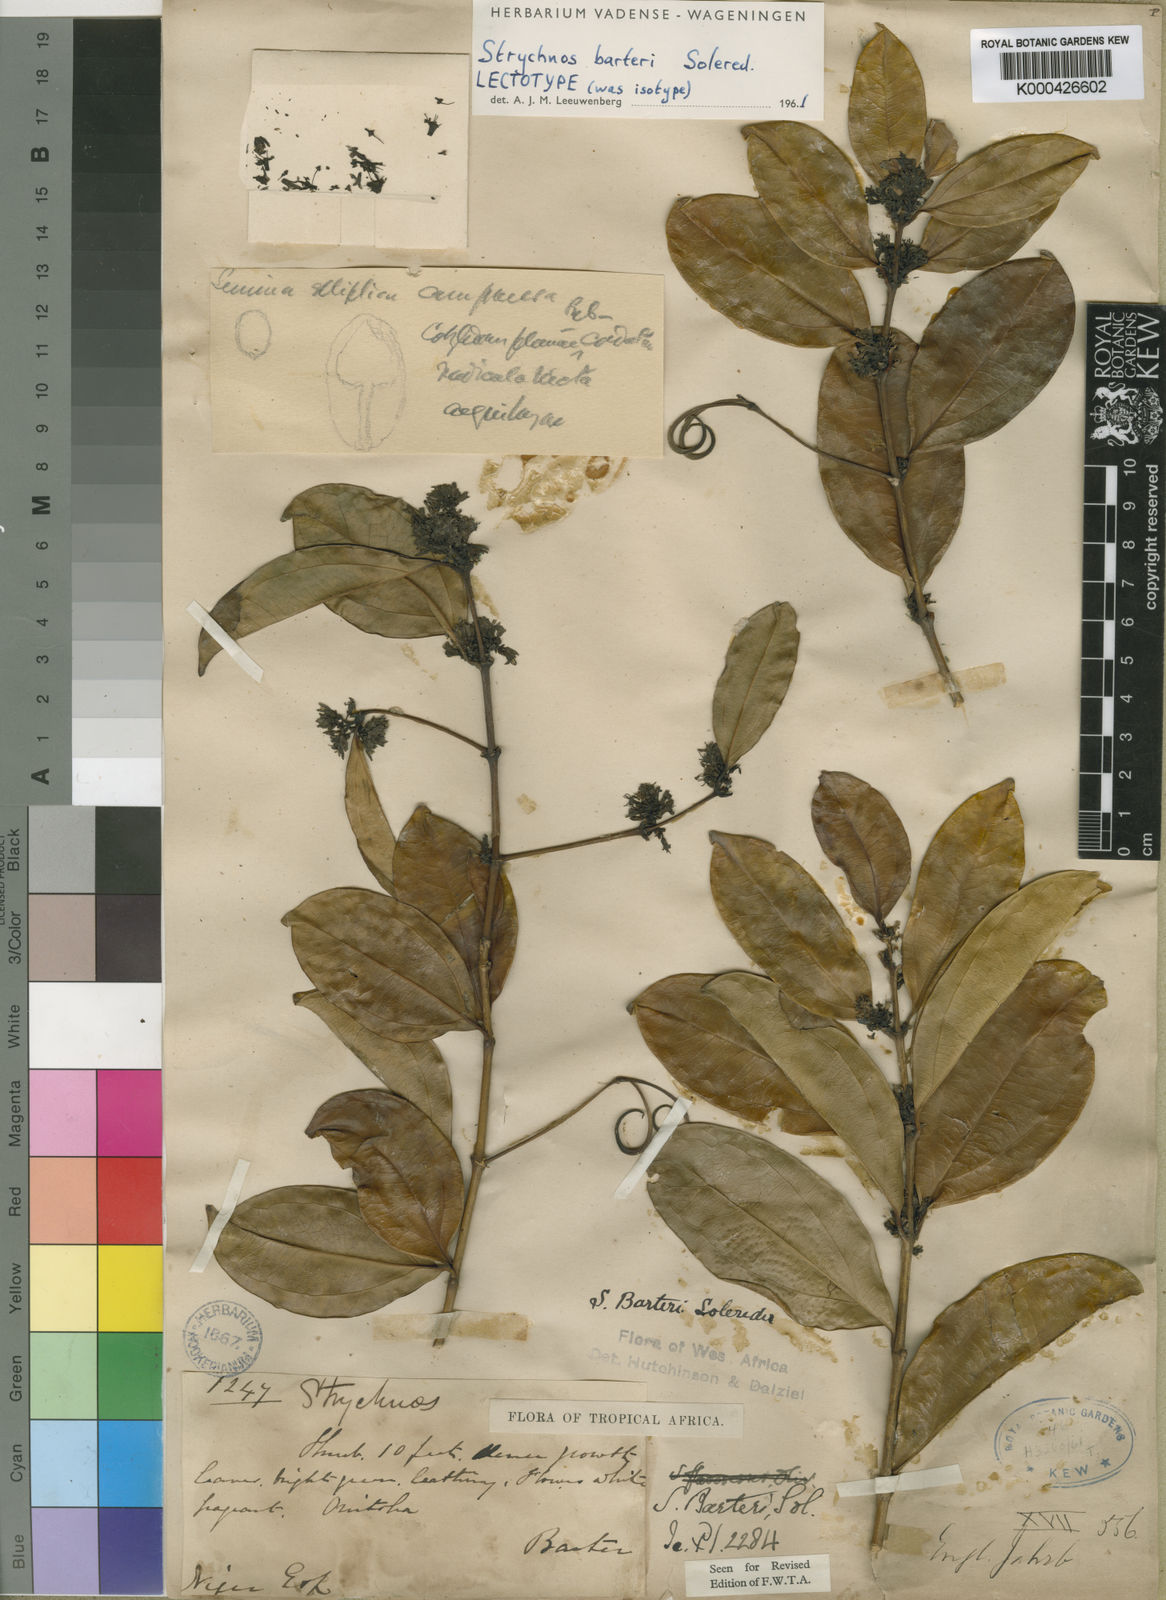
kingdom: Plantae
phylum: Tracheophyta
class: Magnoliopsida
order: Gentianales
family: Loganiaceae
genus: Strychnos
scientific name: Strychnos barteri
